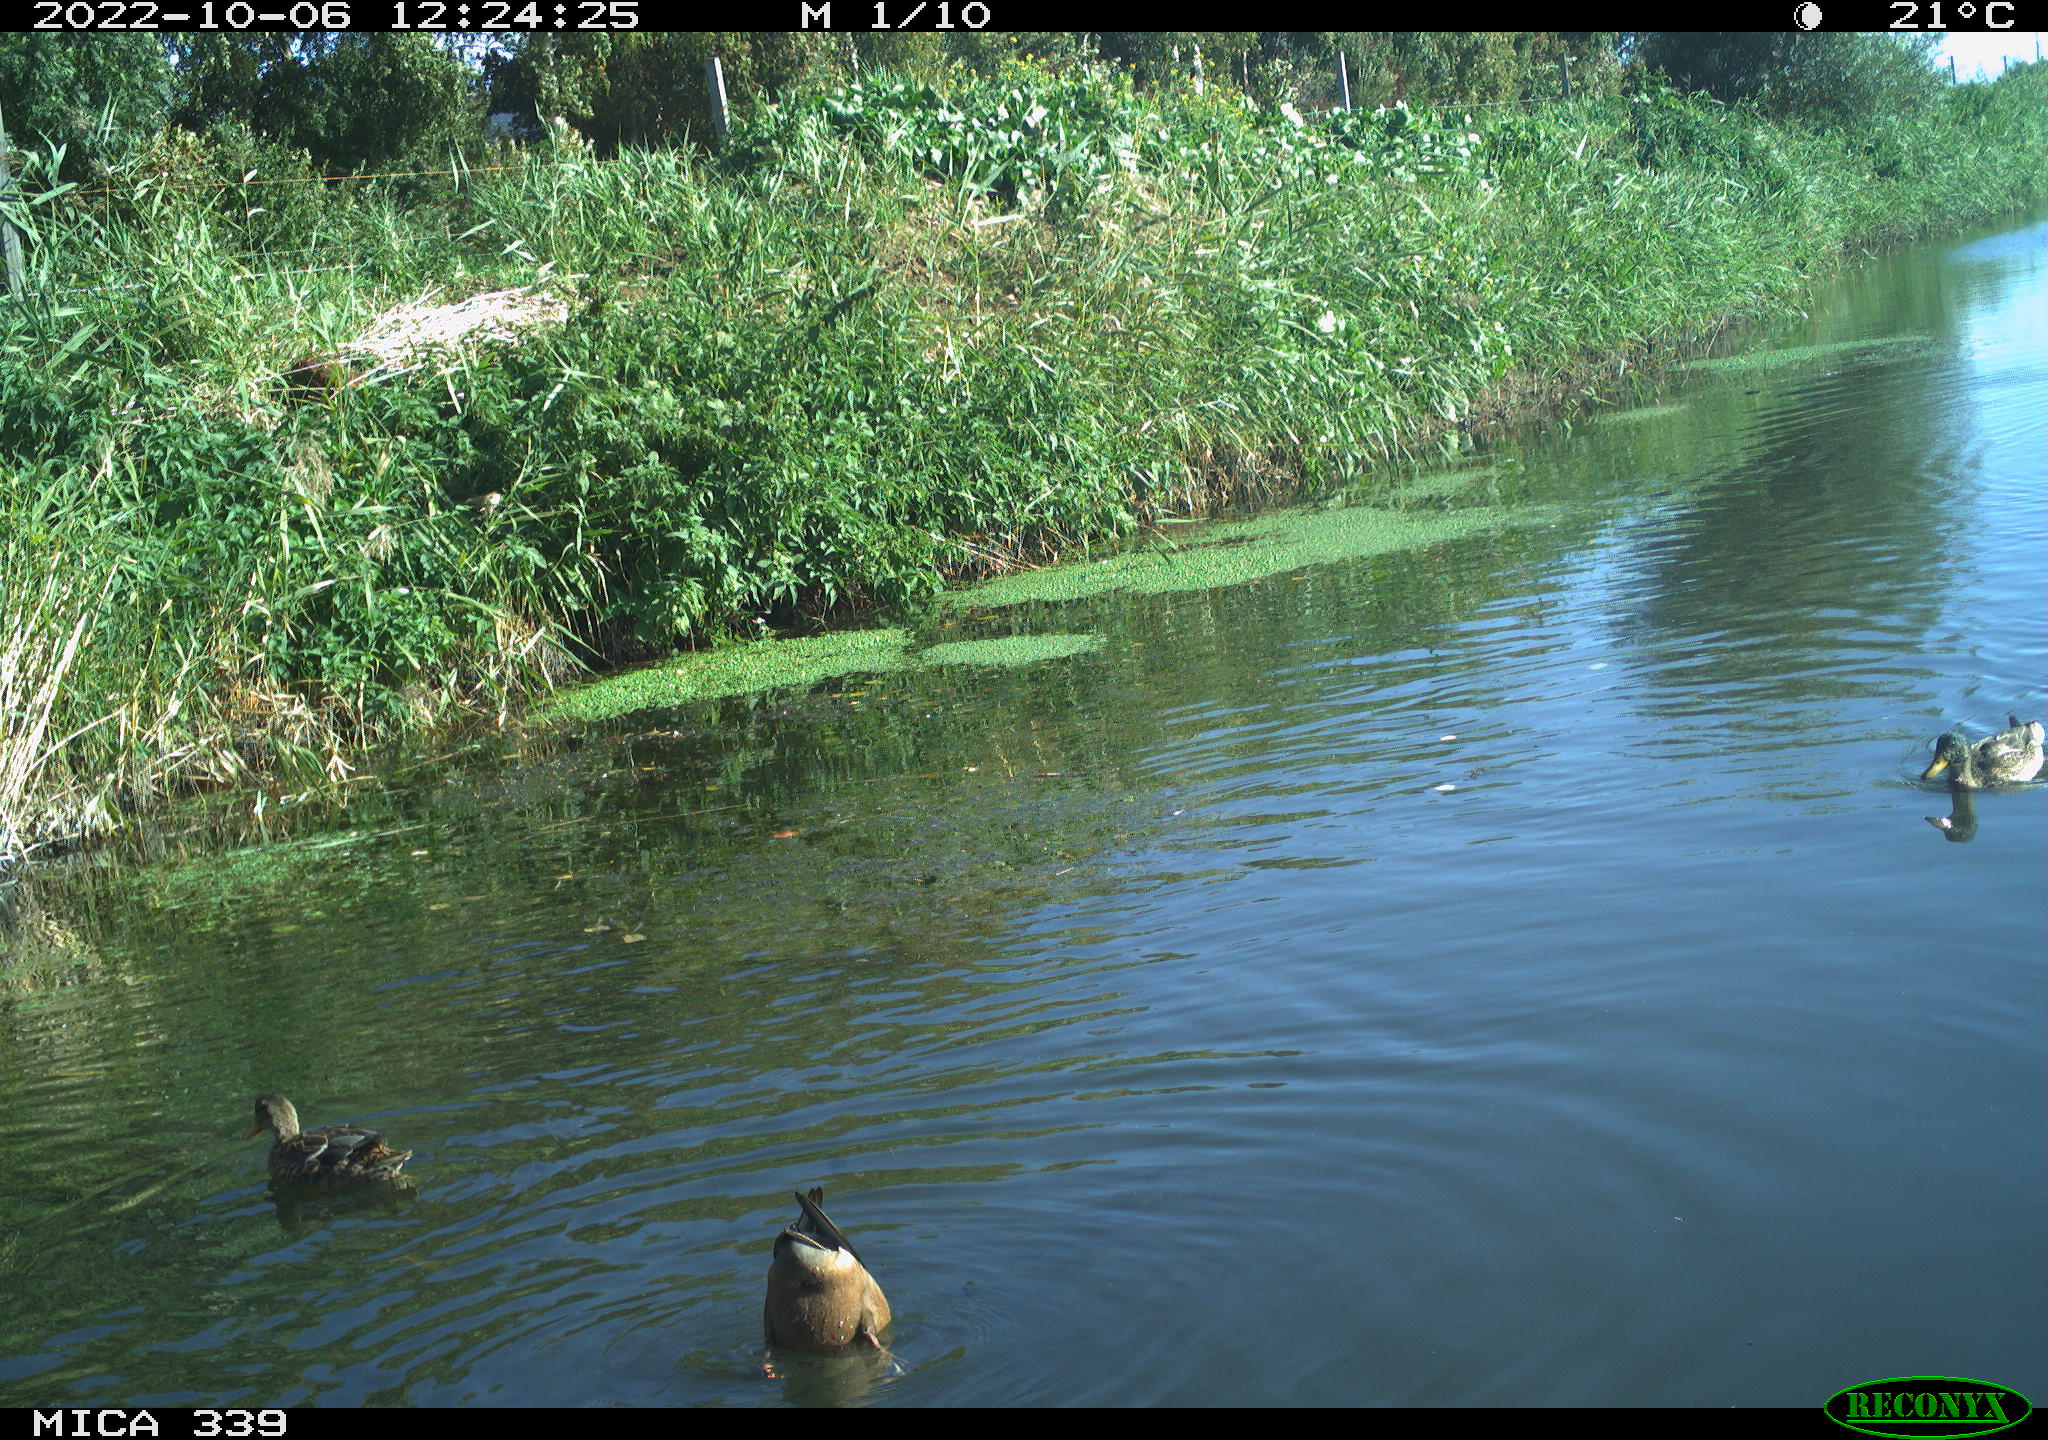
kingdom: Animalia
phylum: Chordata
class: Aves
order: Anseriformes
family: Anatidae
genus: Anas
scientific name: Anas platyrhynchos
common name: Mallard
